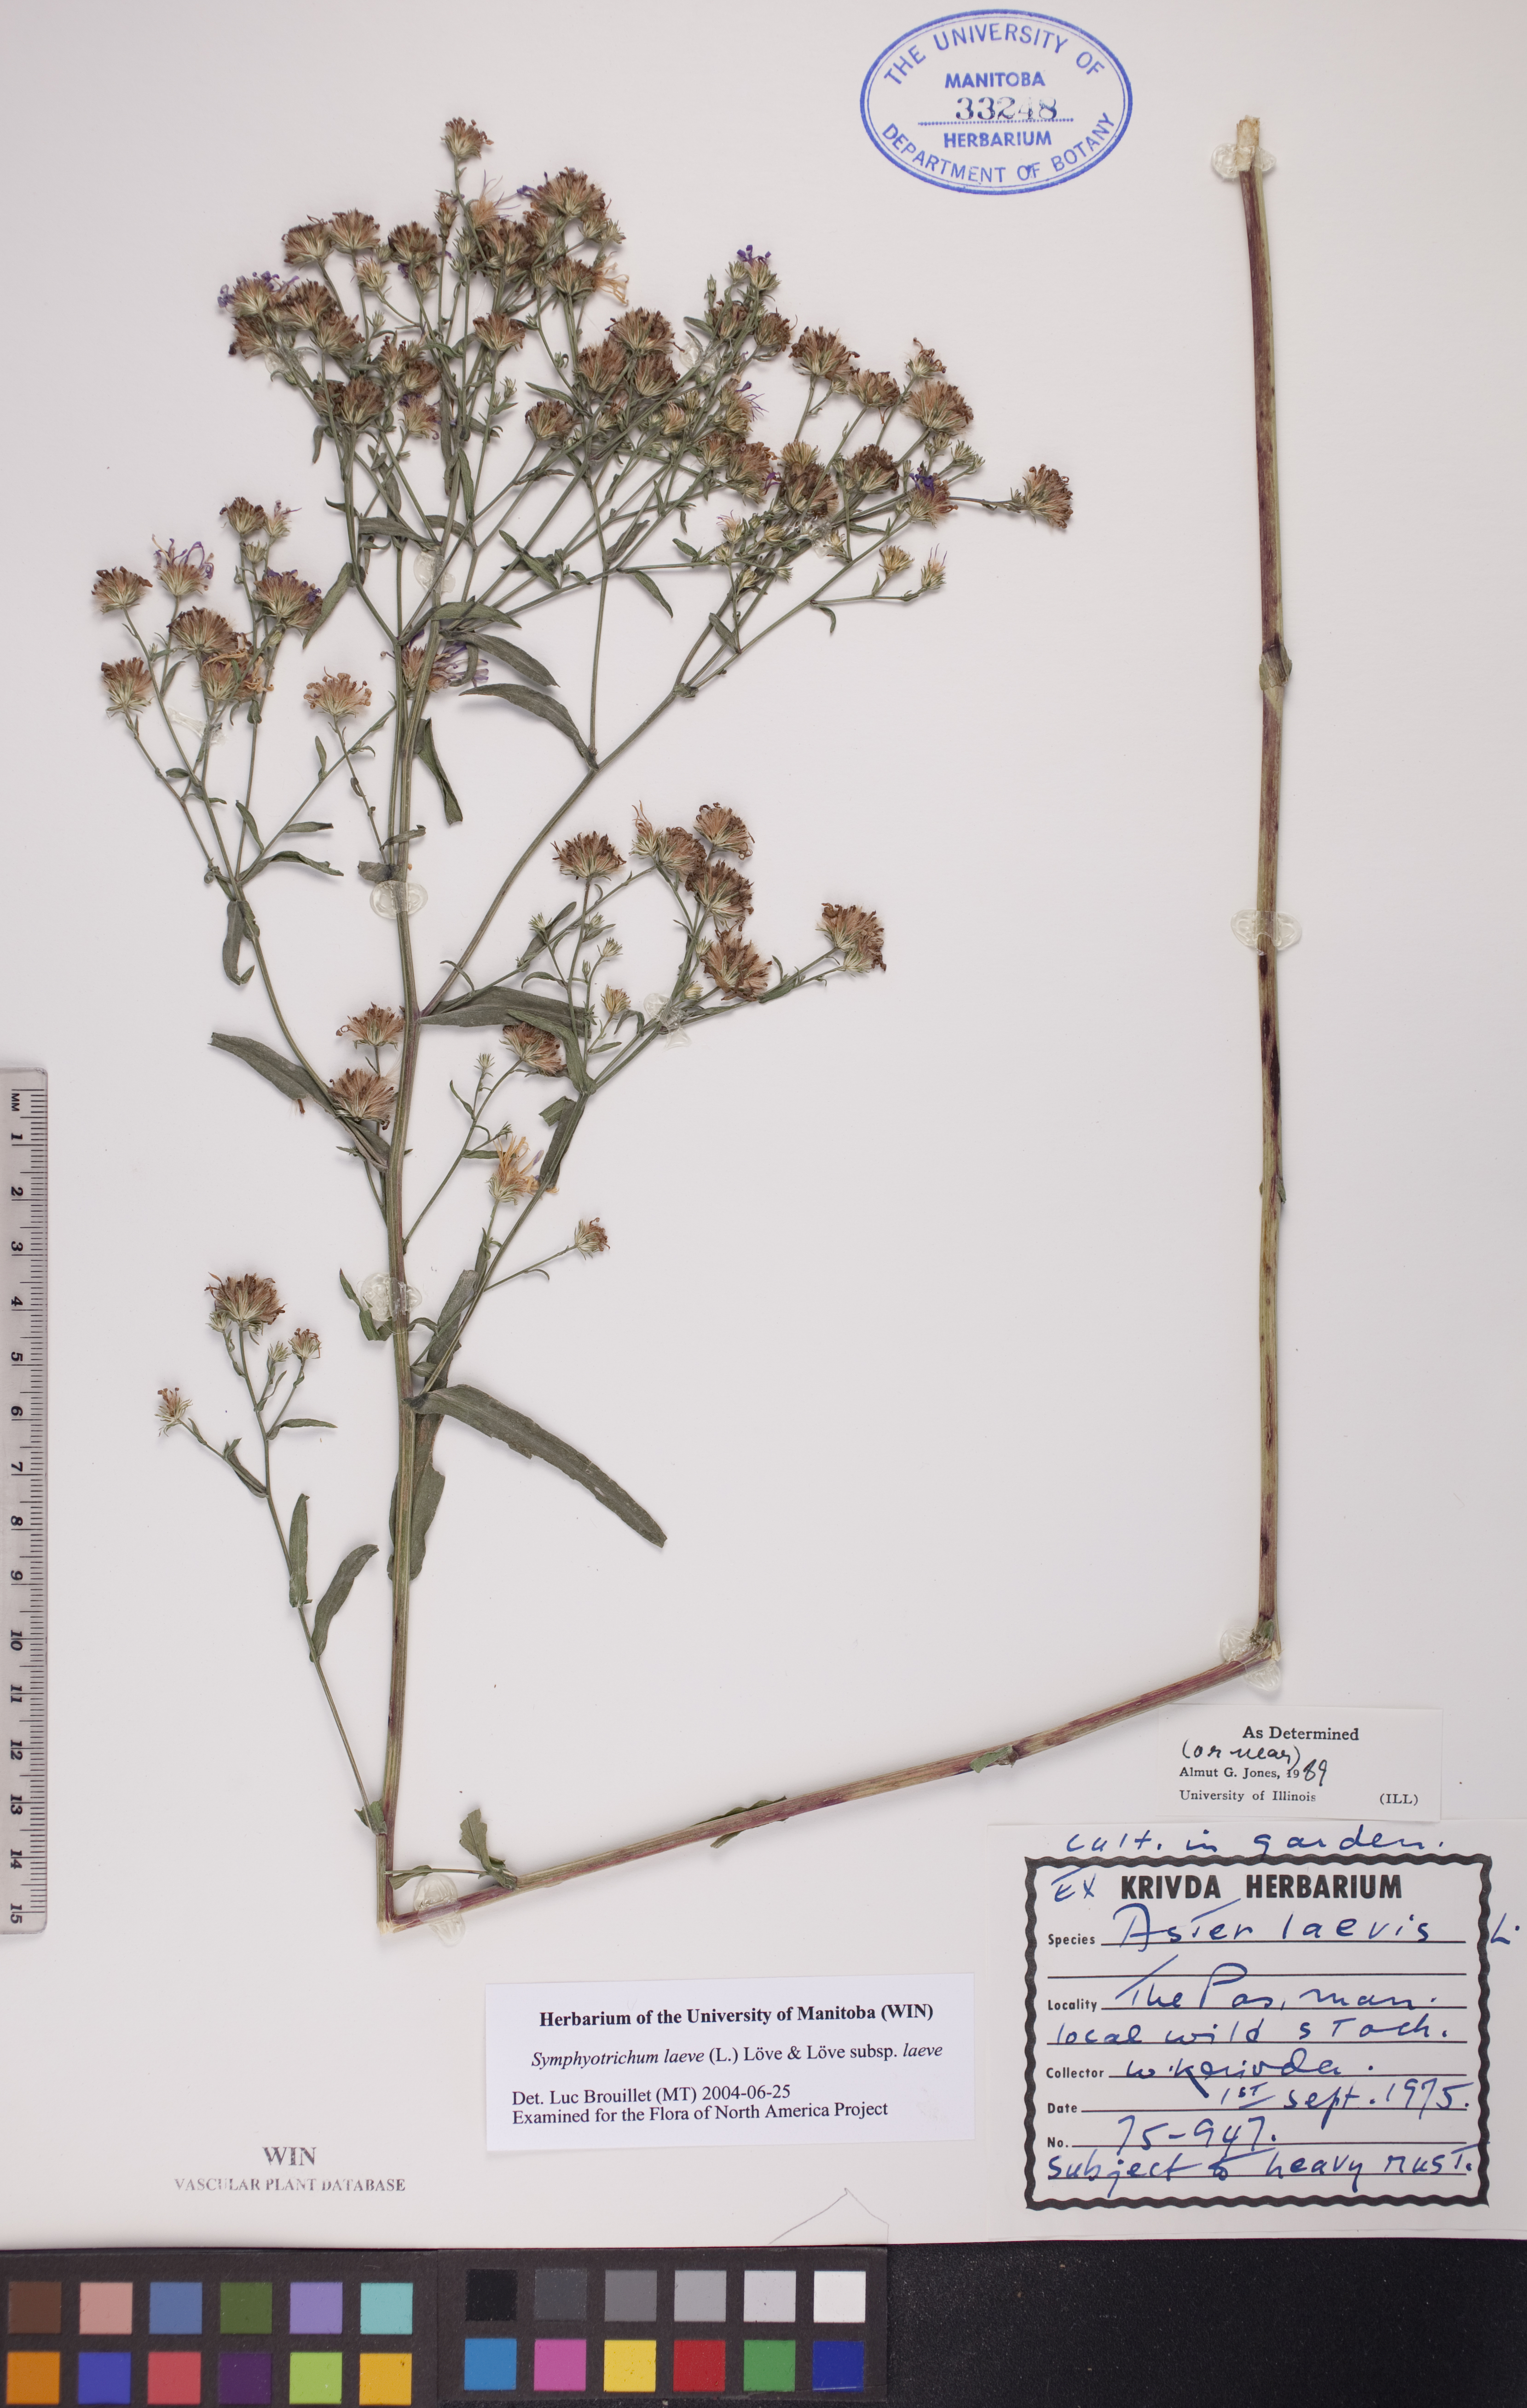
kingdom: Plantae
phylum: Tracheophyta
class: Magnoliopsida
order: Asterales
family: Asteraceae
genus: Symphyotrichum
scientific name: Symphyotrichum laeve
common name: Glaucous aster
